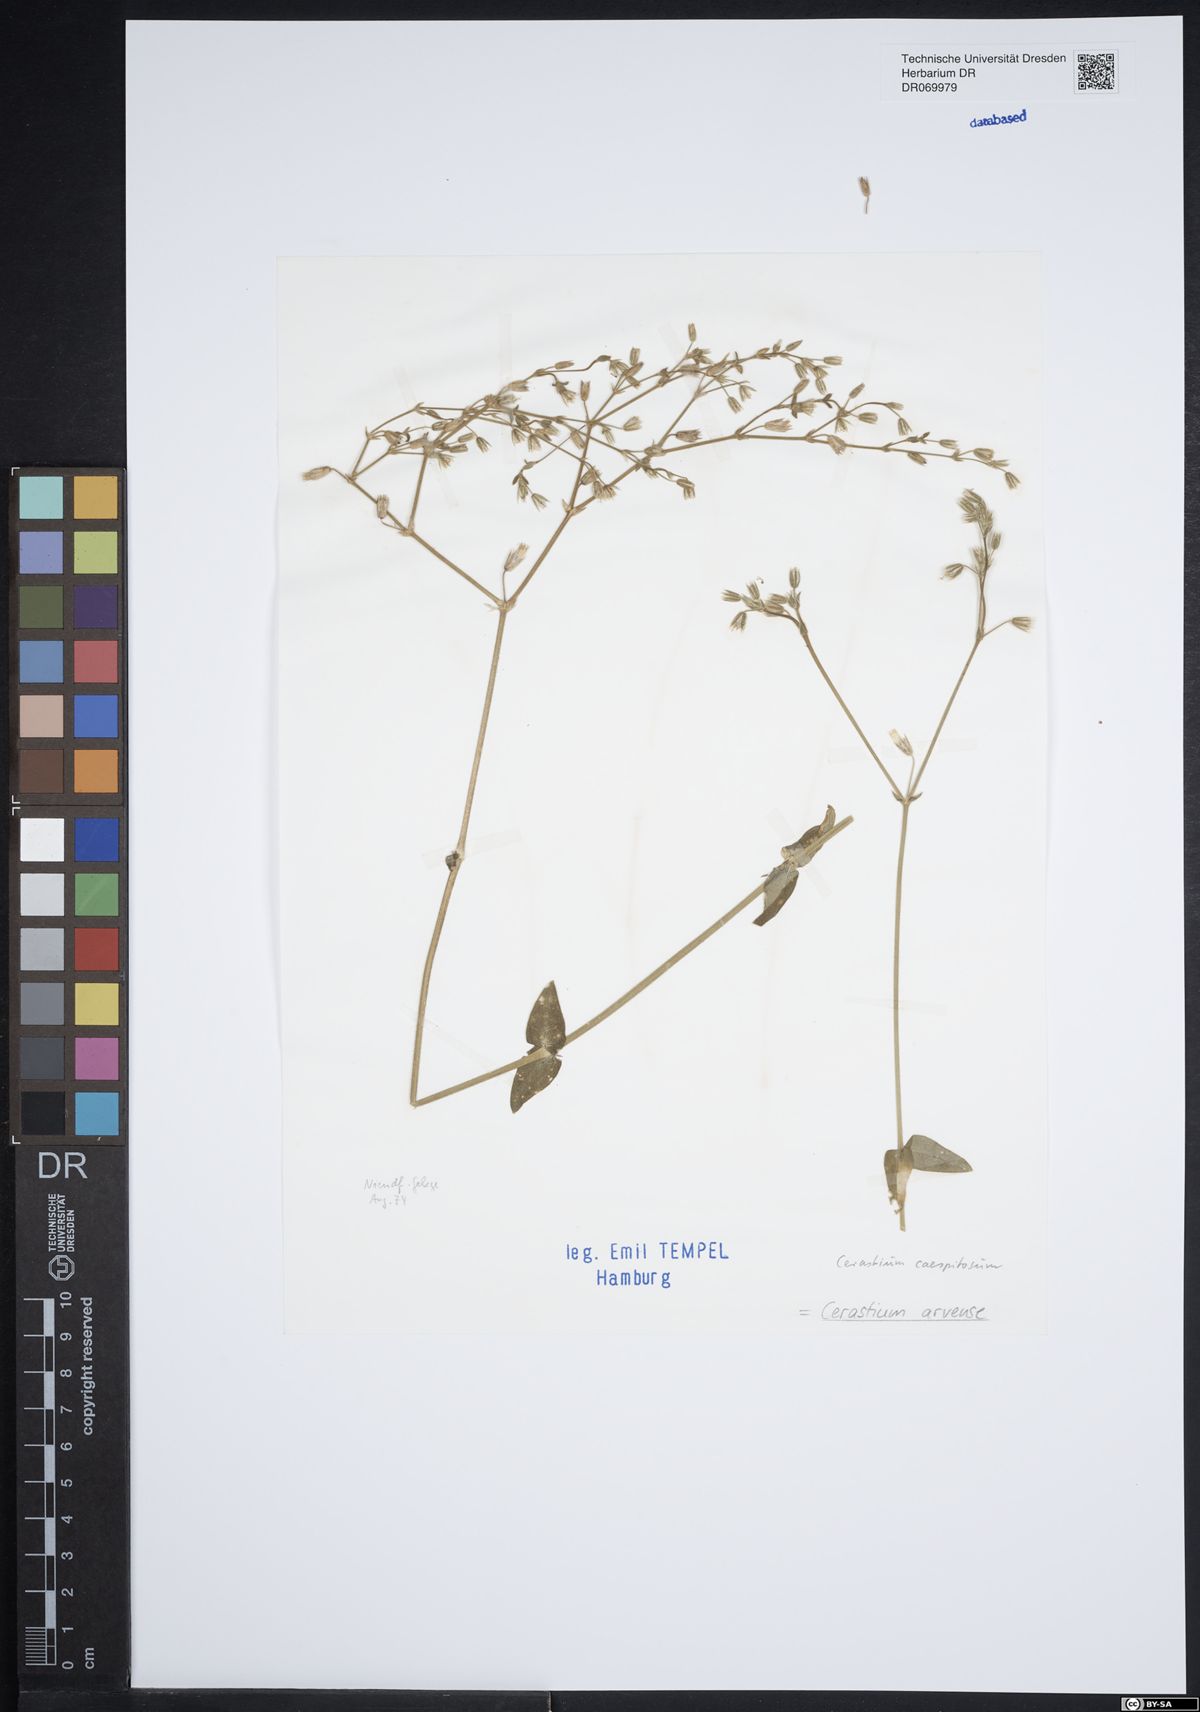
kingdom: Plantae
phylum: Tracheophyta
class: Magnoliopsida
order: Caryophyllales
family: Caryophyllaceae
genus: Cerastium
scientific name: Cerastium arvense
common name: Field mouse-ear
